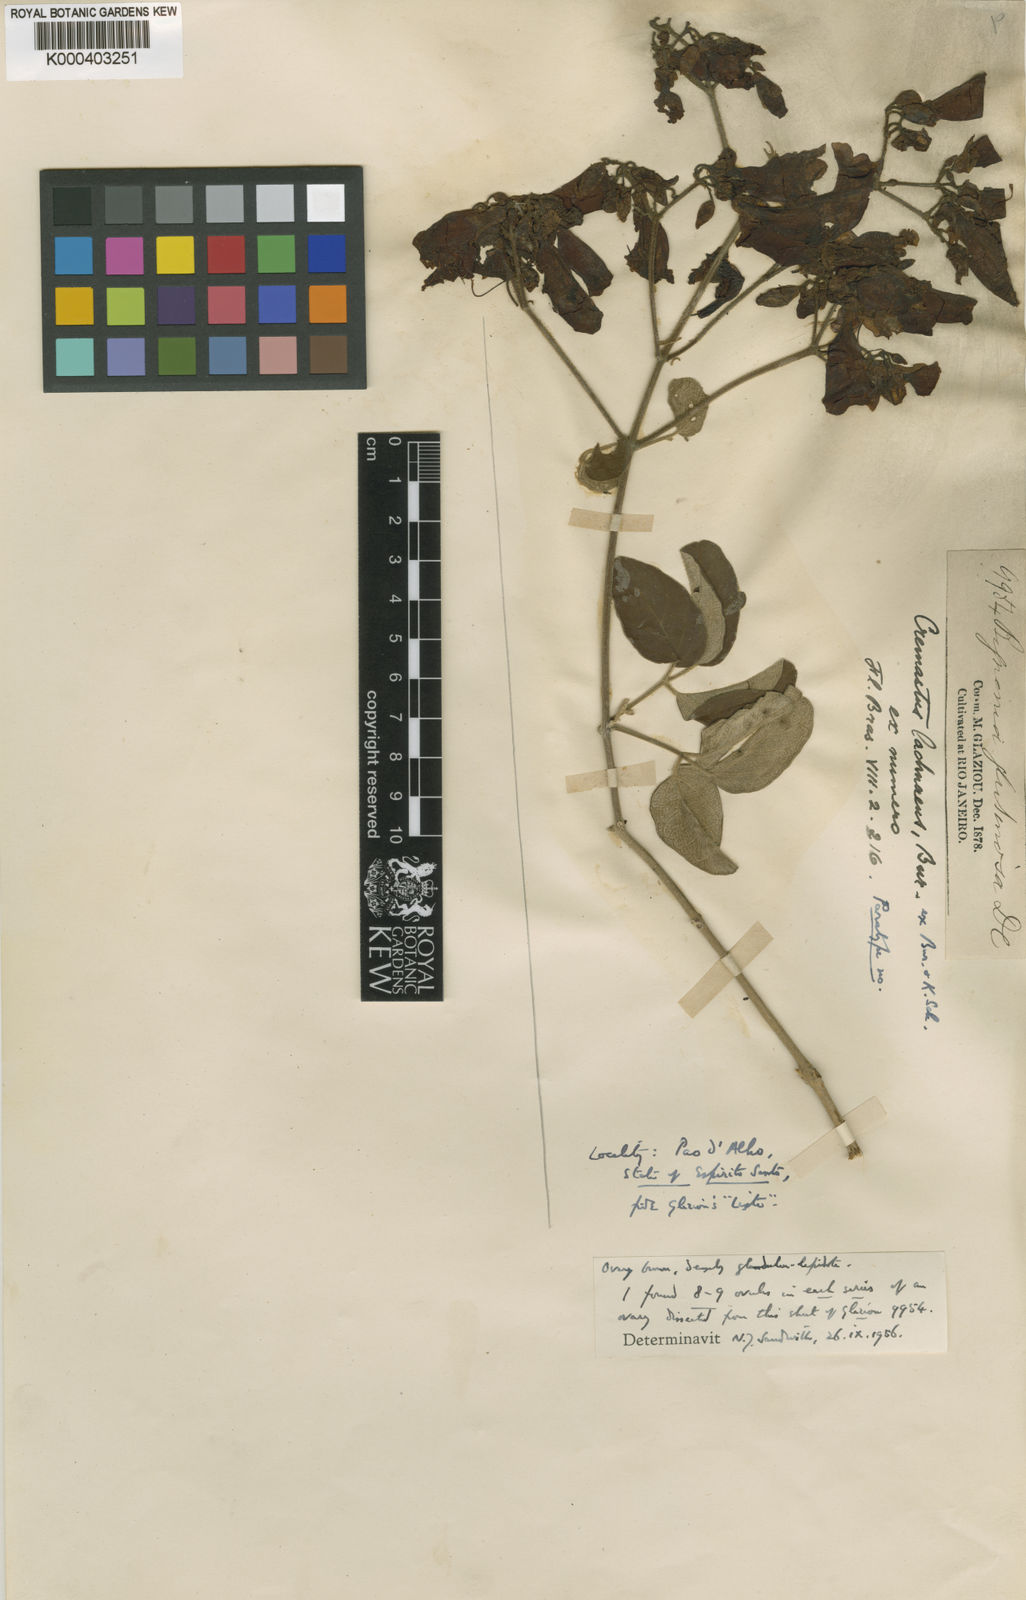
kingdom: Plantae
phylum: Tracheophyta
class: Magnoliopsida
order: Lamiales
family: Bignoniaceae
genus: Cuspidaria
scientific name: Cuspidaria lachnaea
